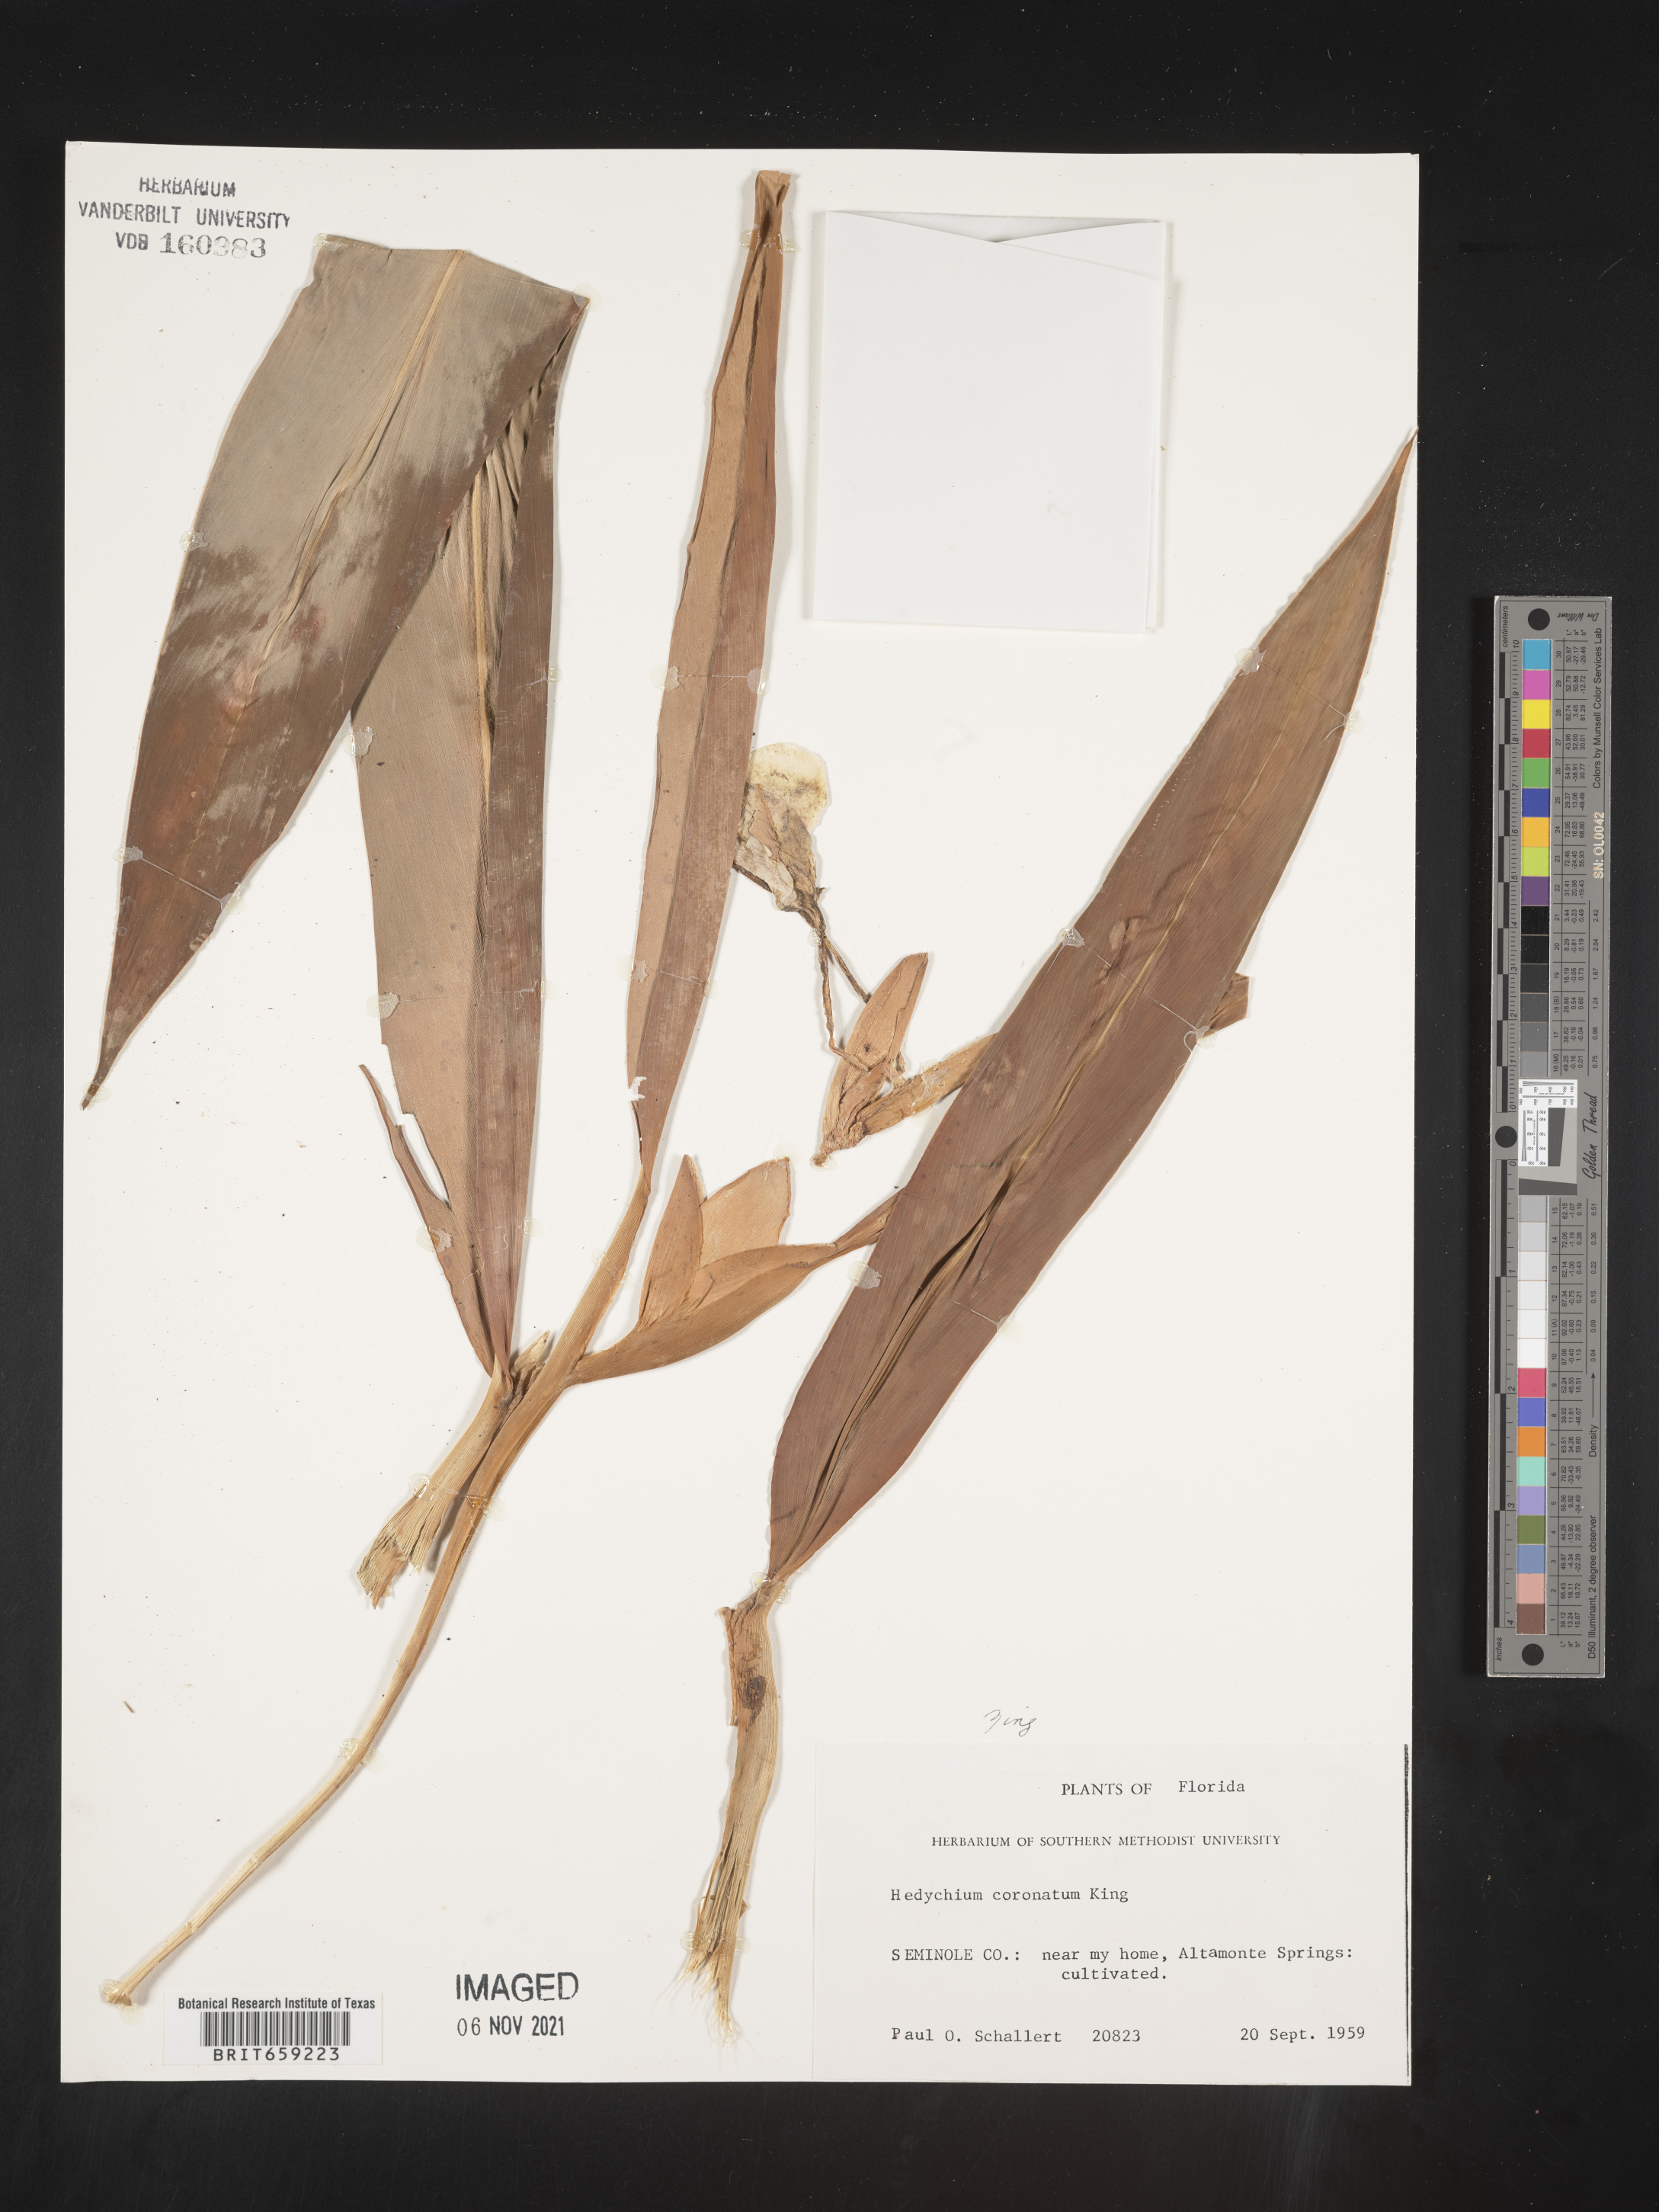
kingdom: Plantae
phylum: Tracheophyta
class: Liliopsida
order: Zingiberales
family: Zingiberaceae
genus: Hedychium
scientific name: Hedychium
